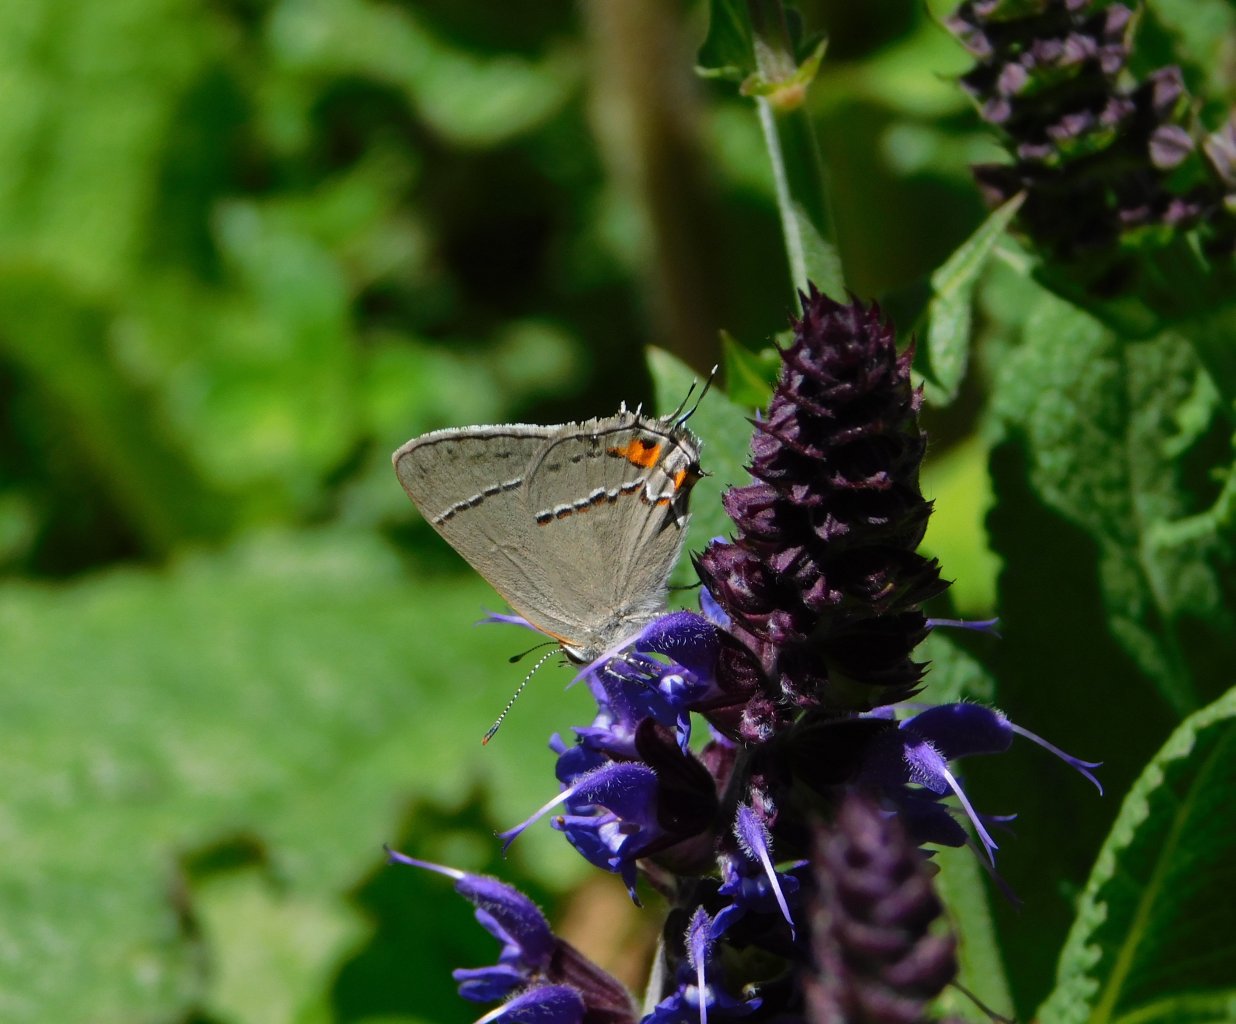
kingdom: Animalia
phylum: Arthropoda
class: Insecta
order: Lepidoptera
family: Lycaenidae
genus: Strymon
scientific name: Strymon melinus
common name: Gray Hairstreak
